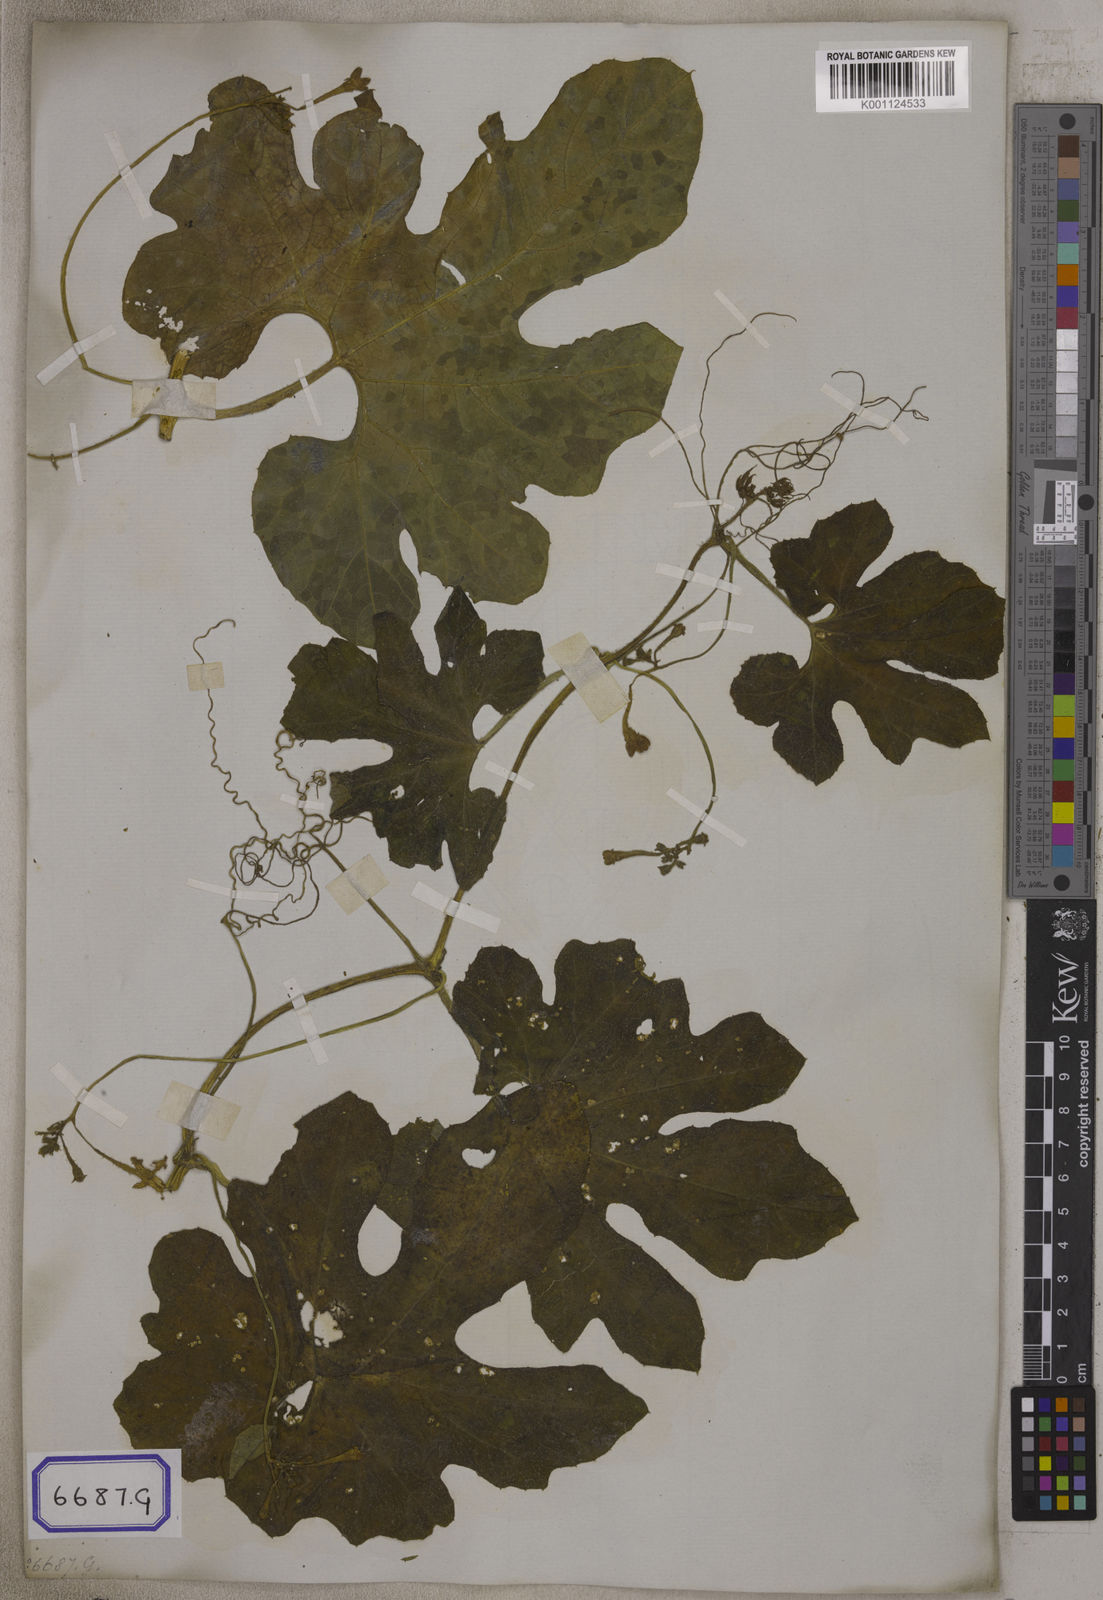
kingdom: Plantae
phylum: Tracheophyta
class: Magnoliopsida
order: Cucurbitales
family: Cucurbitaceae
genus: Trichosanthes
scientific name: Trichosanthes cucumerina
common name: Snakegourd
